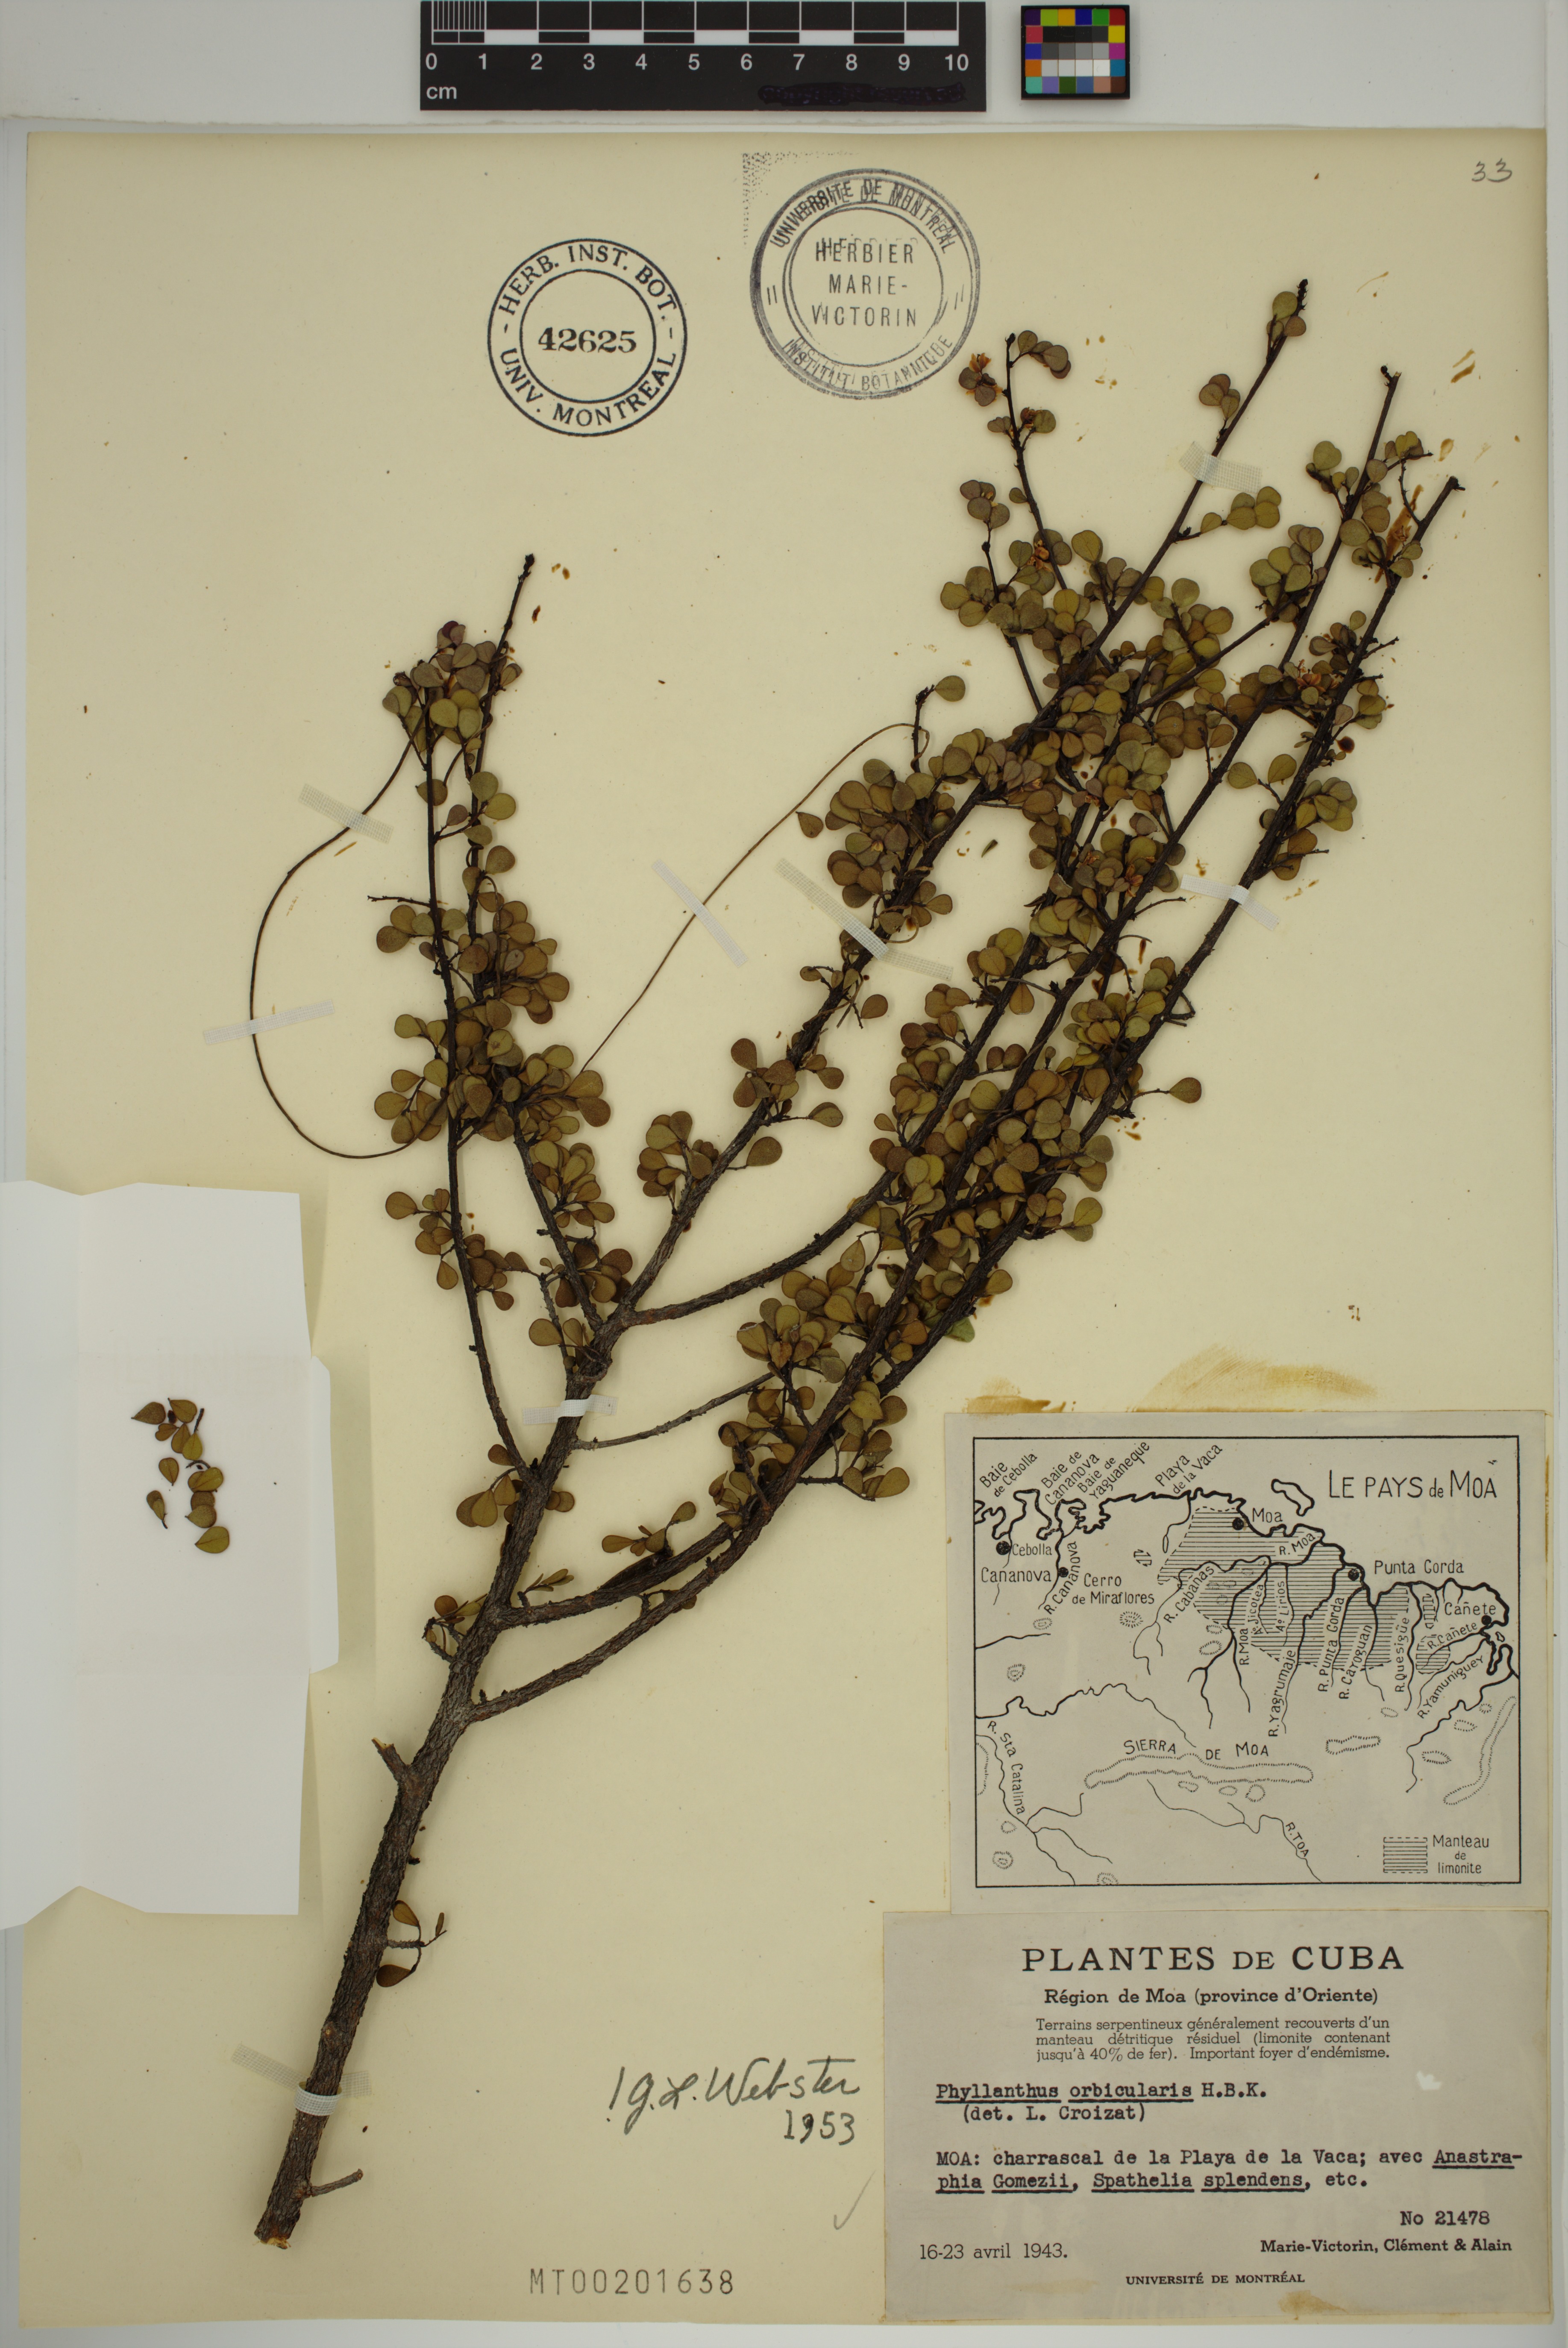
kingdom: Plantae
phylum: Tracheophyta
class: Magnoliopsida
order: Malpighiales
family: Phyllanthaceae
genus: Phyllanthus
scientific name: Phyllanthus orbicularis
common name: Wedge leaf-flower
